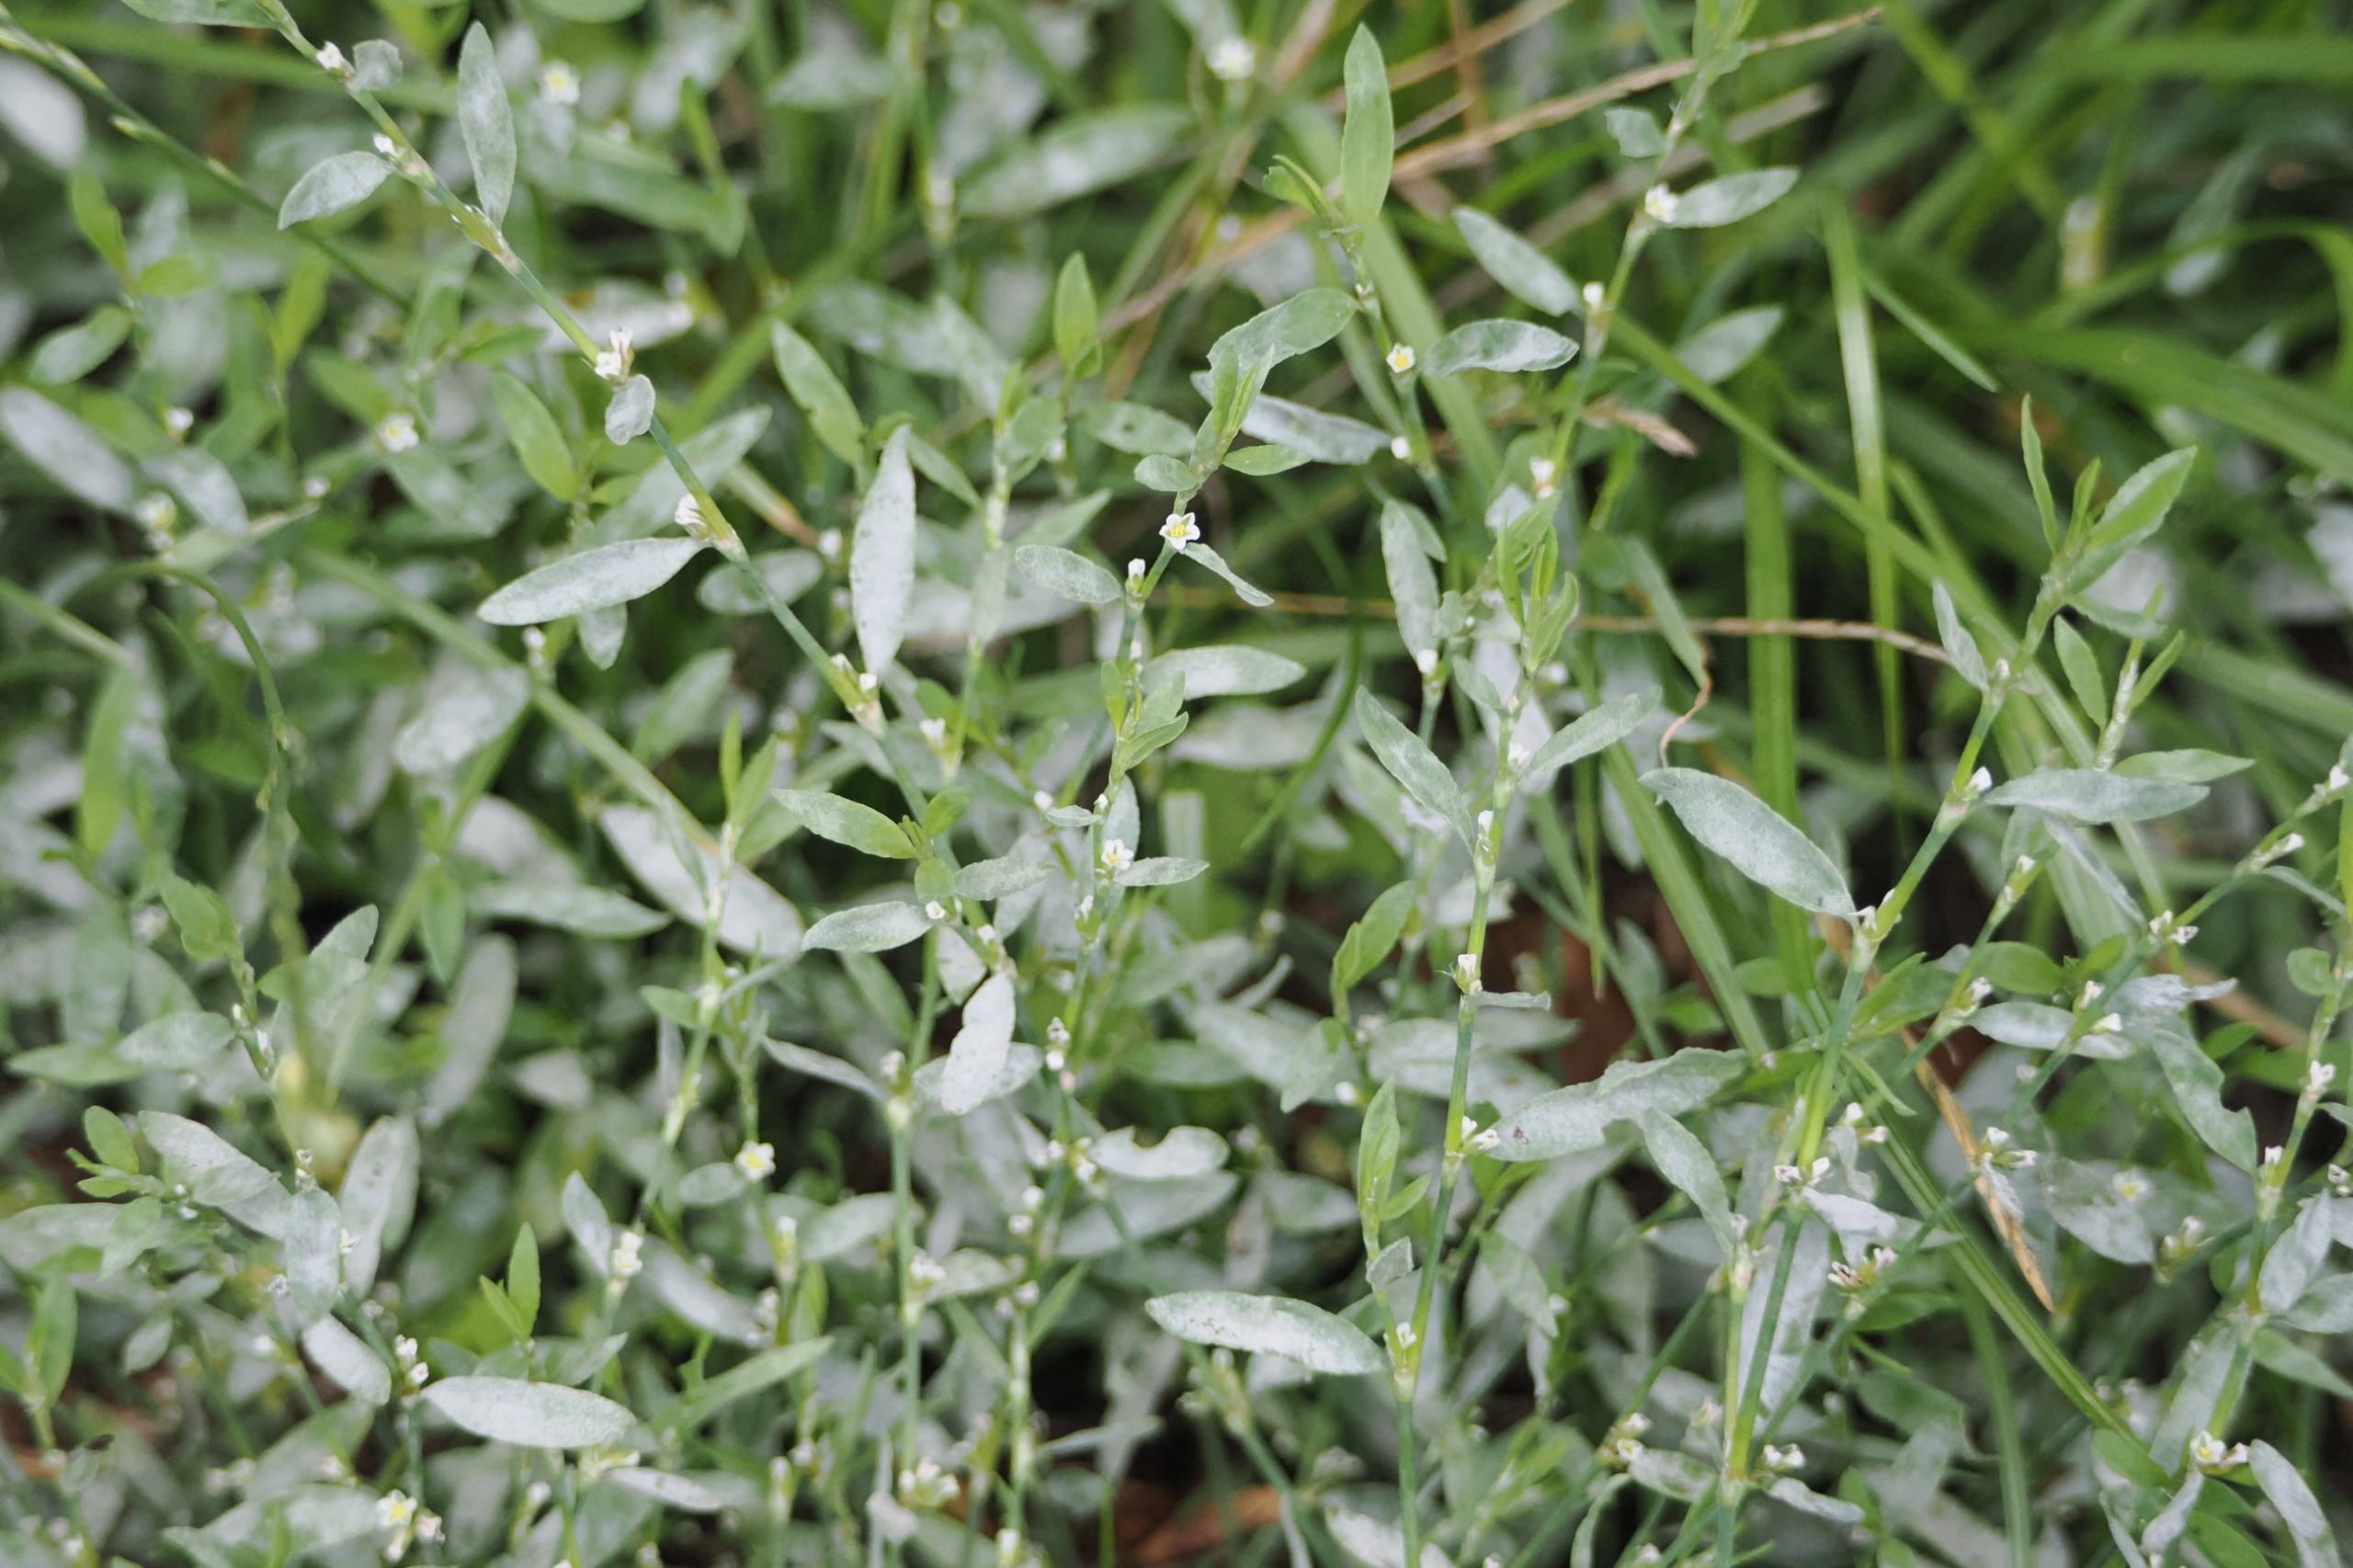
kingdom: Plantae
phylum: Tracheophyta
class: Magnoliopsida
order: Caryophyllales
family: Polygonaceae
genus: Polygonum
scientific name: Polygonum aviculare
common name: Vej-pileurt
